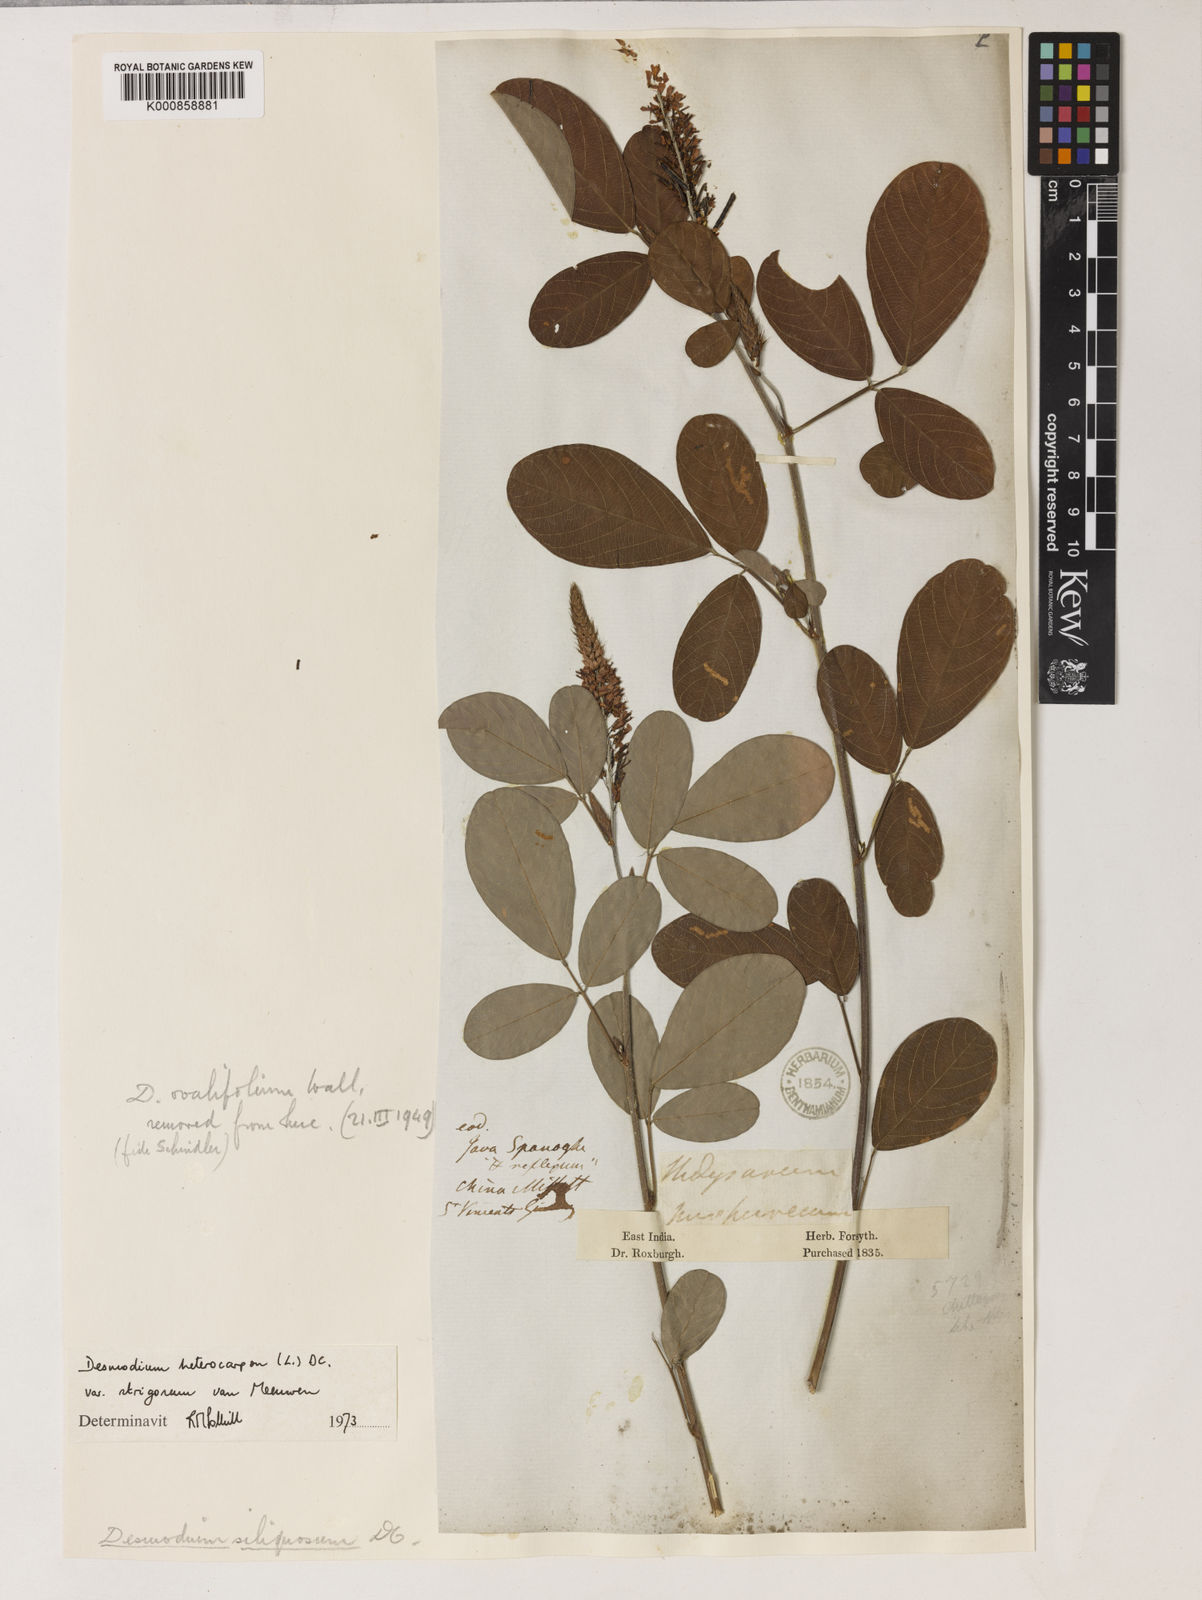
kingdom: Plantae
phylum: Tracheophyta
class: Magnoliopsida
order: Fabales
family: Fabaceae
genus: Grona
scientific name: Grona heterocarpos
